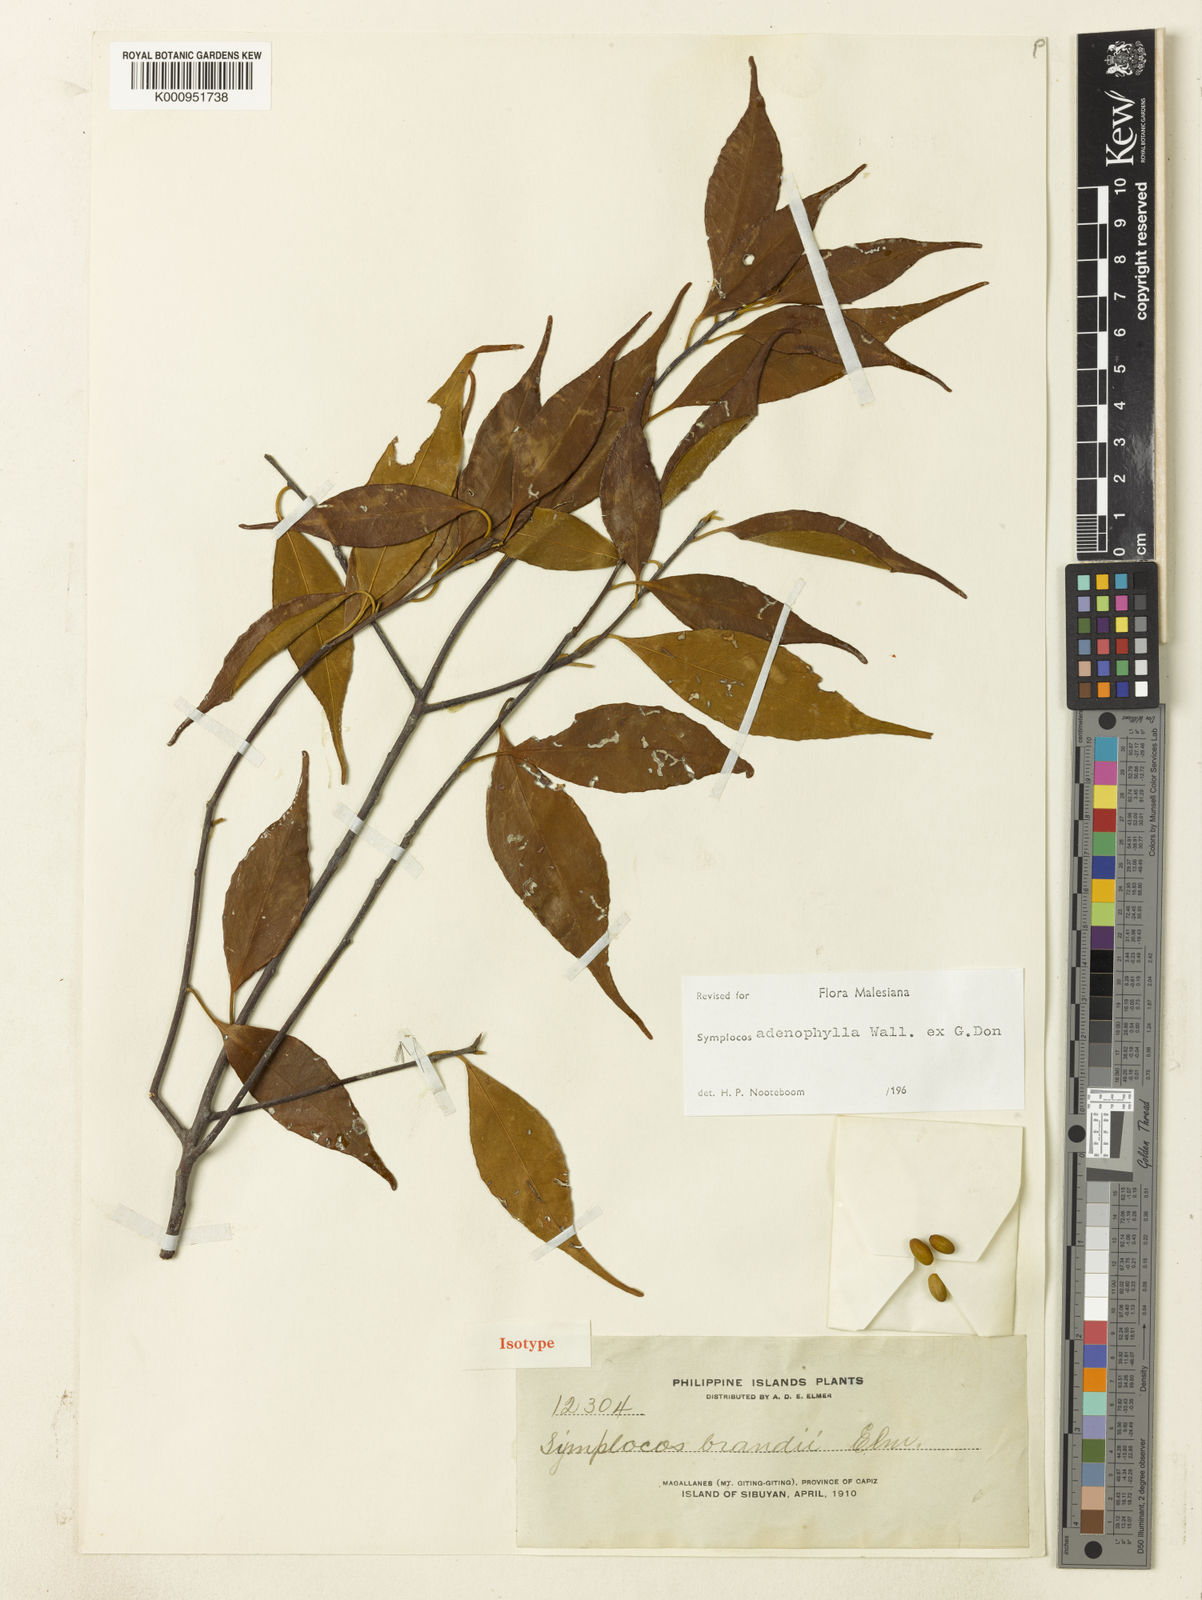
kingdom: Plantae
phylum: Tracheophyta
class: Magnoliopsida
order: Ericales
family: Symplocaceae
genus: Symplocos
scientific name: Symplocos adenophylla
